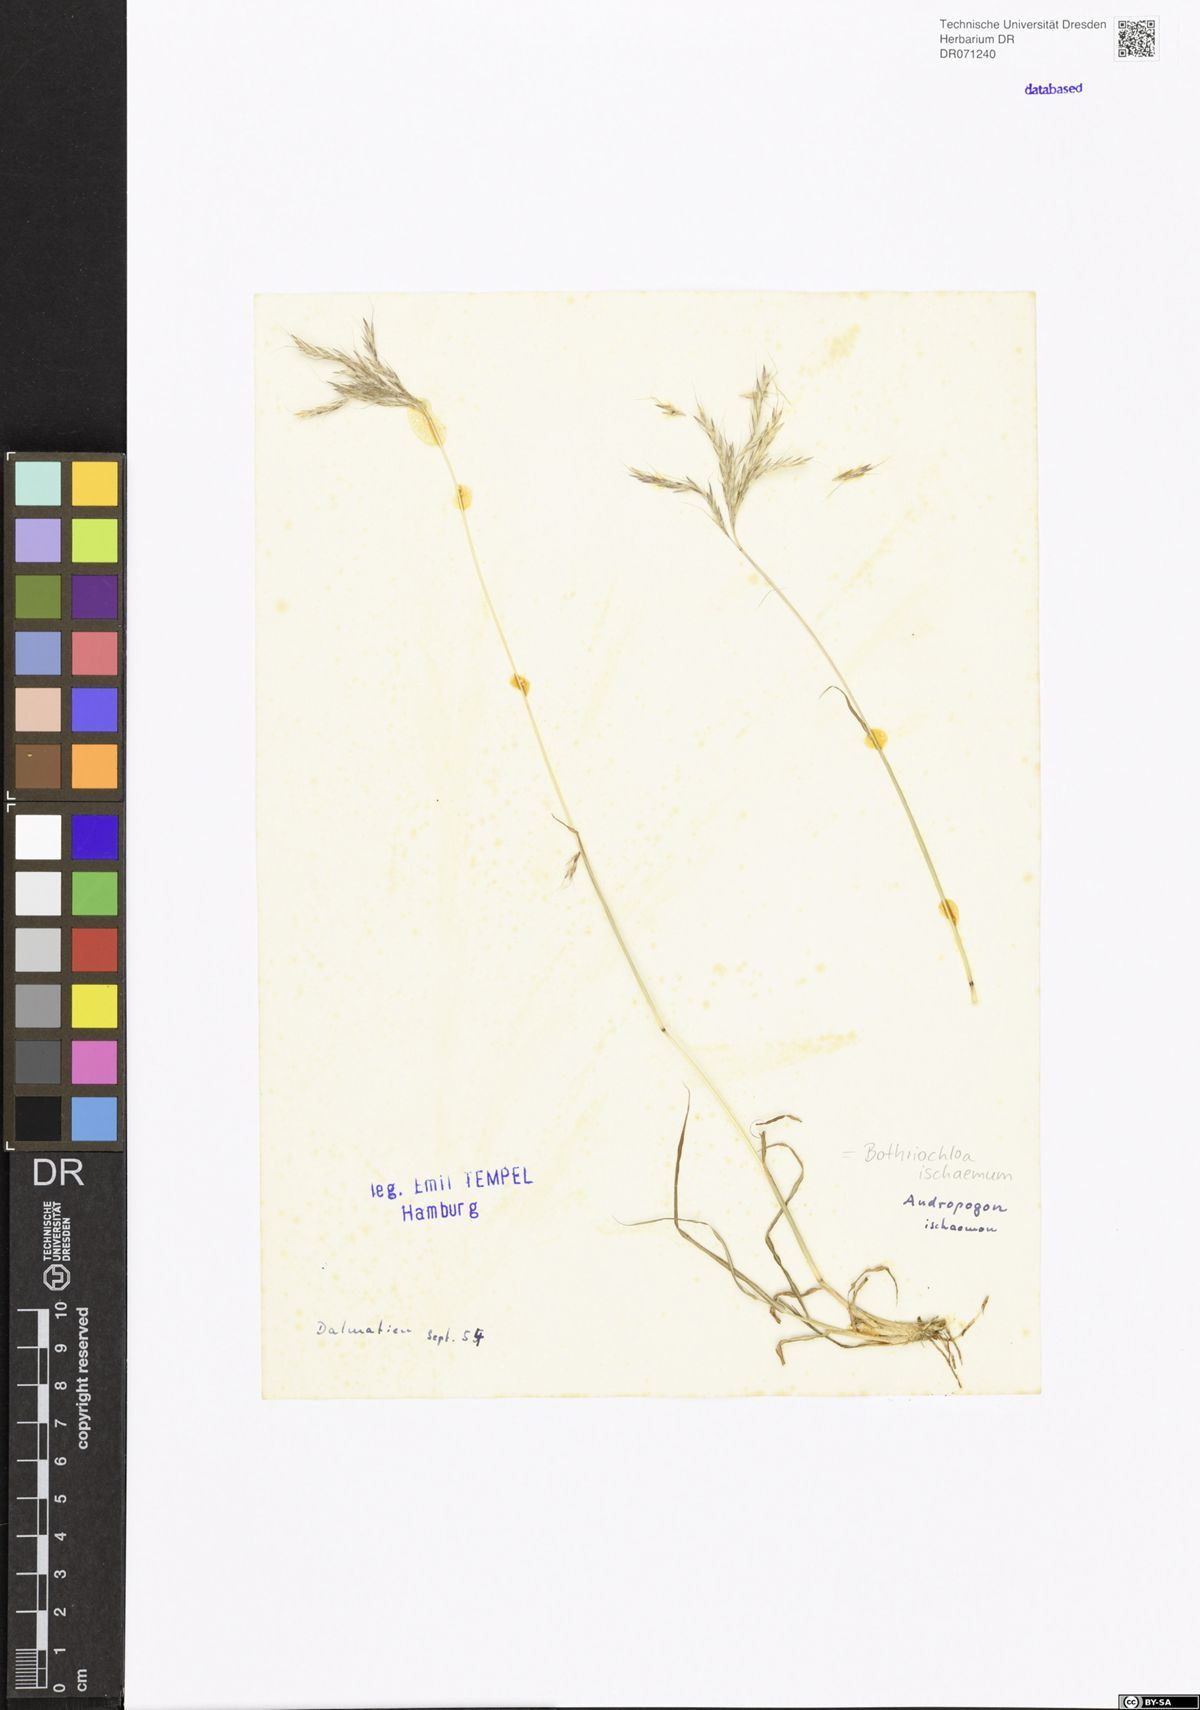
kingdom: Plantae
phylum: Tracheophyta
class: Liliopsida
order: Poales
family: Poaceae
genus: Bothriochloa
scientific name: Bothriochloa ischaemum
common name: Yellow bluestem
